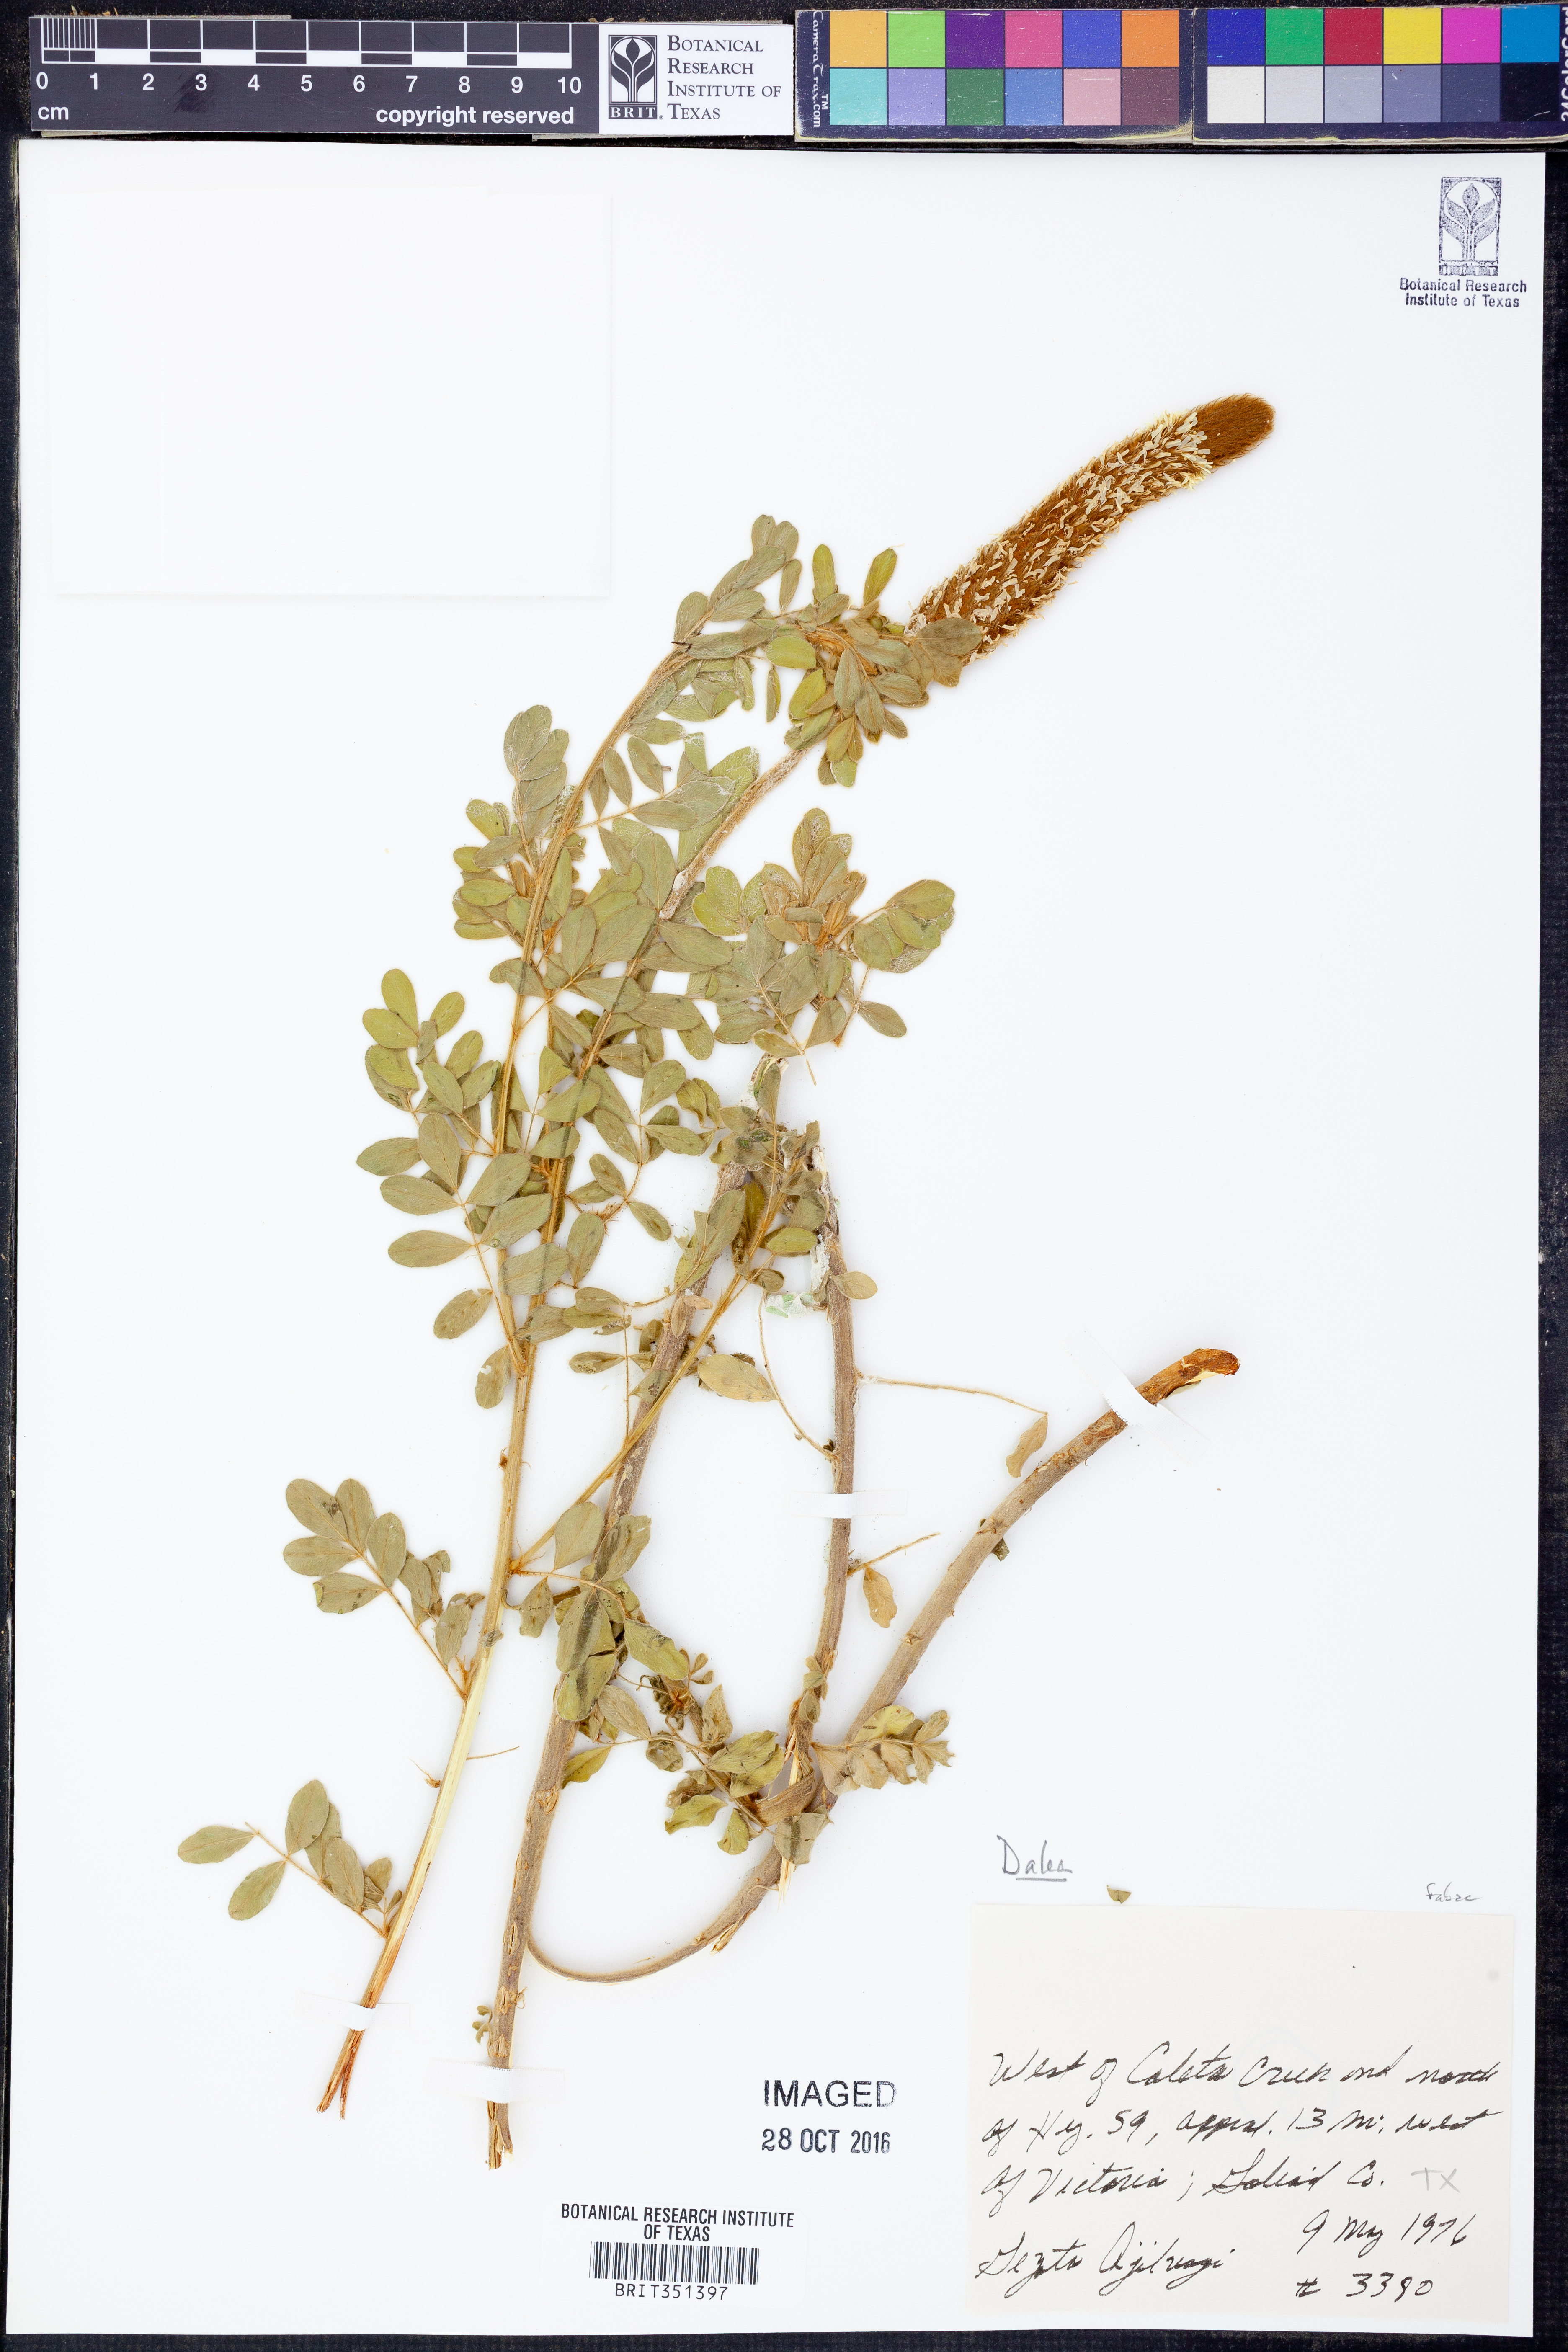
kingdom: Plantae
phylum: Tracheophyta
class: Magnoliopsida
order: Fabales
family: Fabaceae
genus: Dalea
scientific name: Dalea
